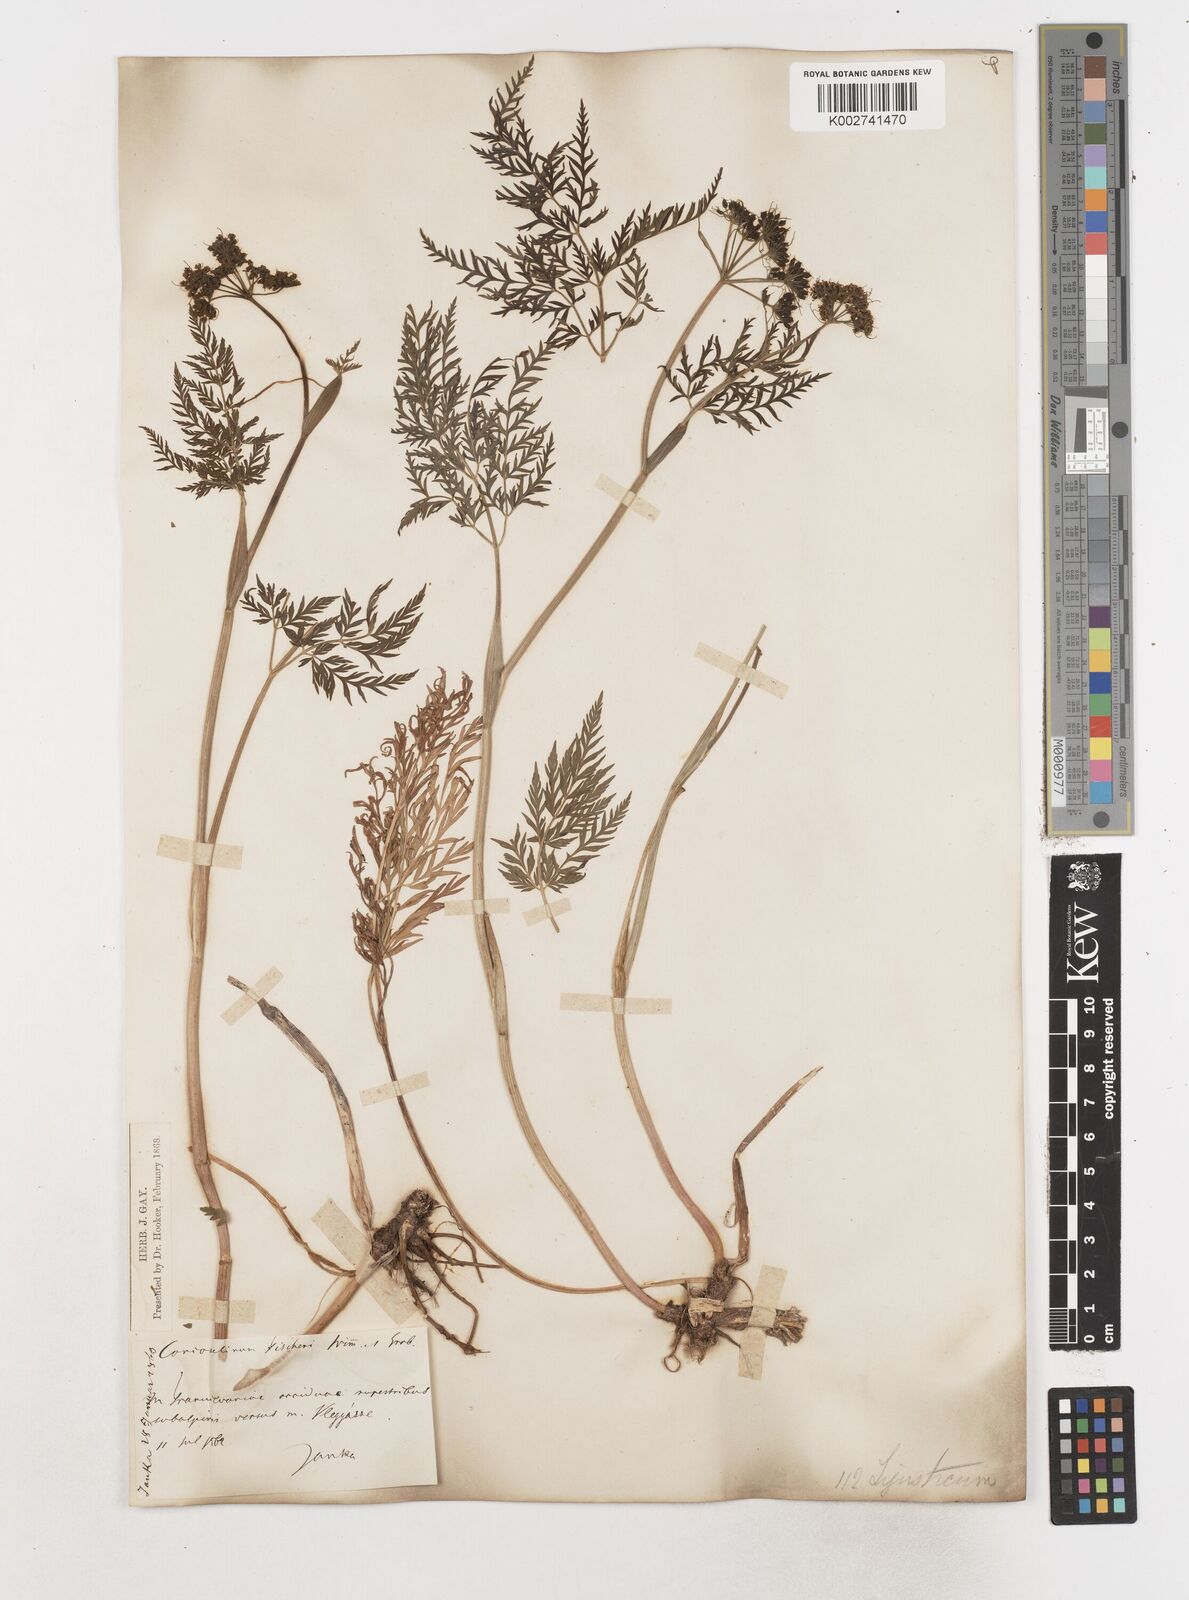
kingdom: Plantae
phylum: Tracheophyta
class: Magnoliopsida
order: Apiales
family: Apiaceae
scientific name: Apiaceae
